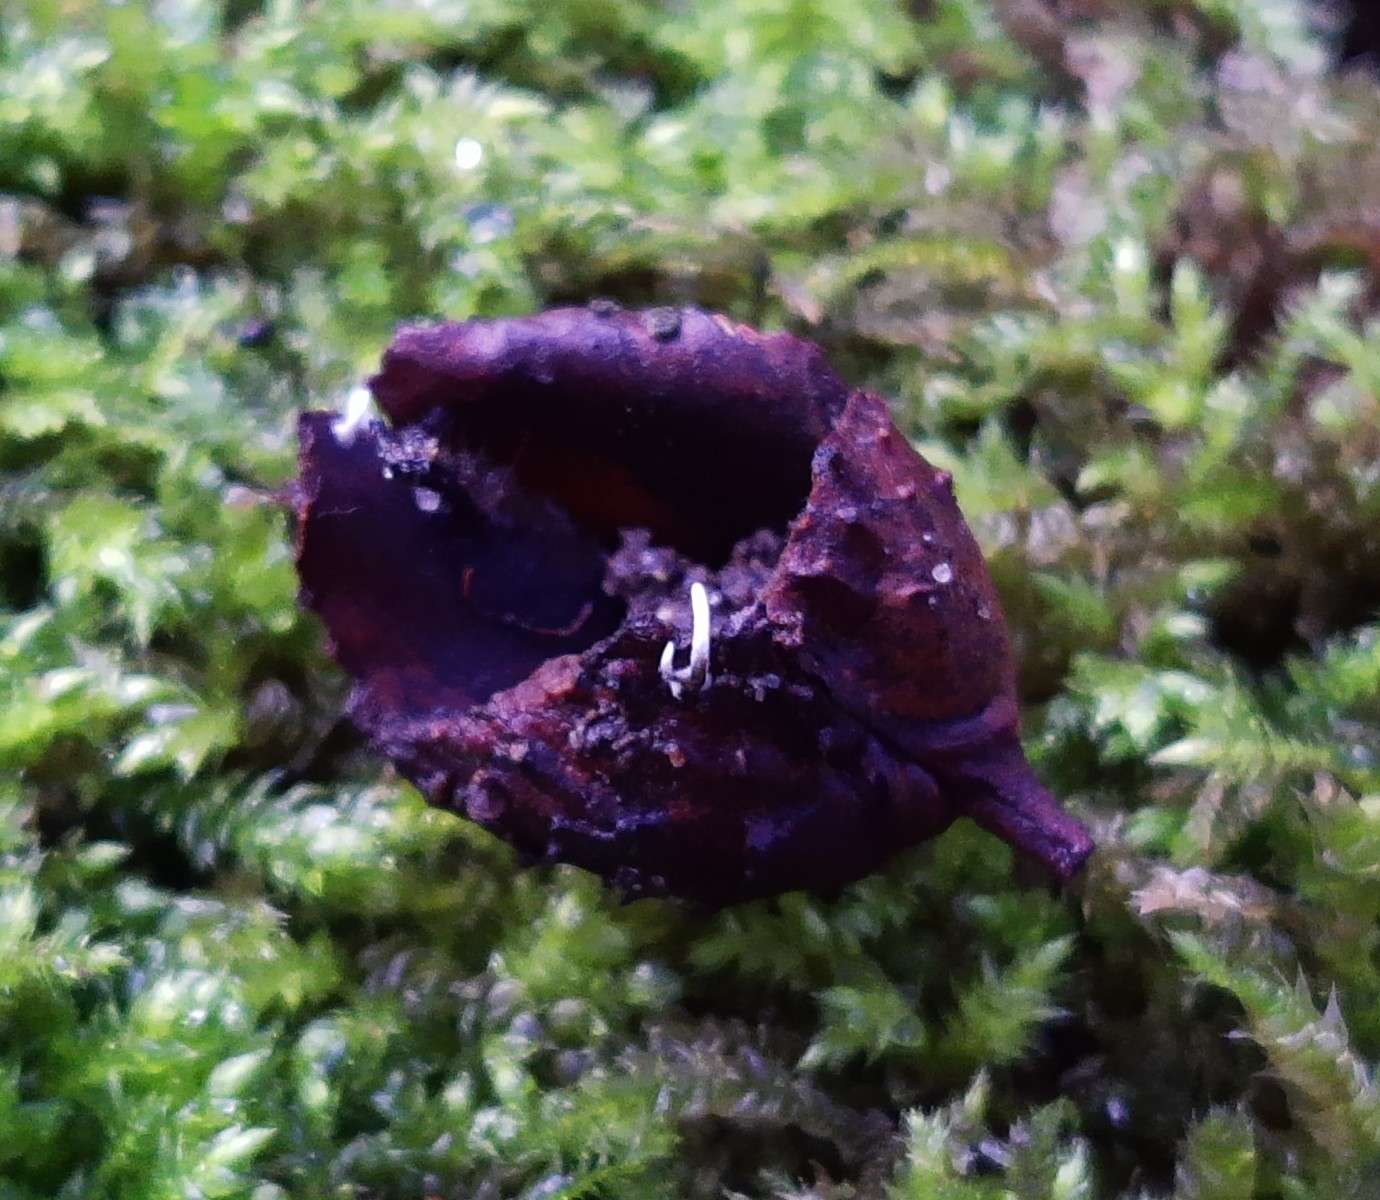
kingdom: Fungi
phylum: Ascomycota
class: Sordariomycetes
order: Xylariales
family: Xylariaceae
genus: Xylaria
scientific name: Xylaria carpophila
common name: bogskål-stødsvamp
